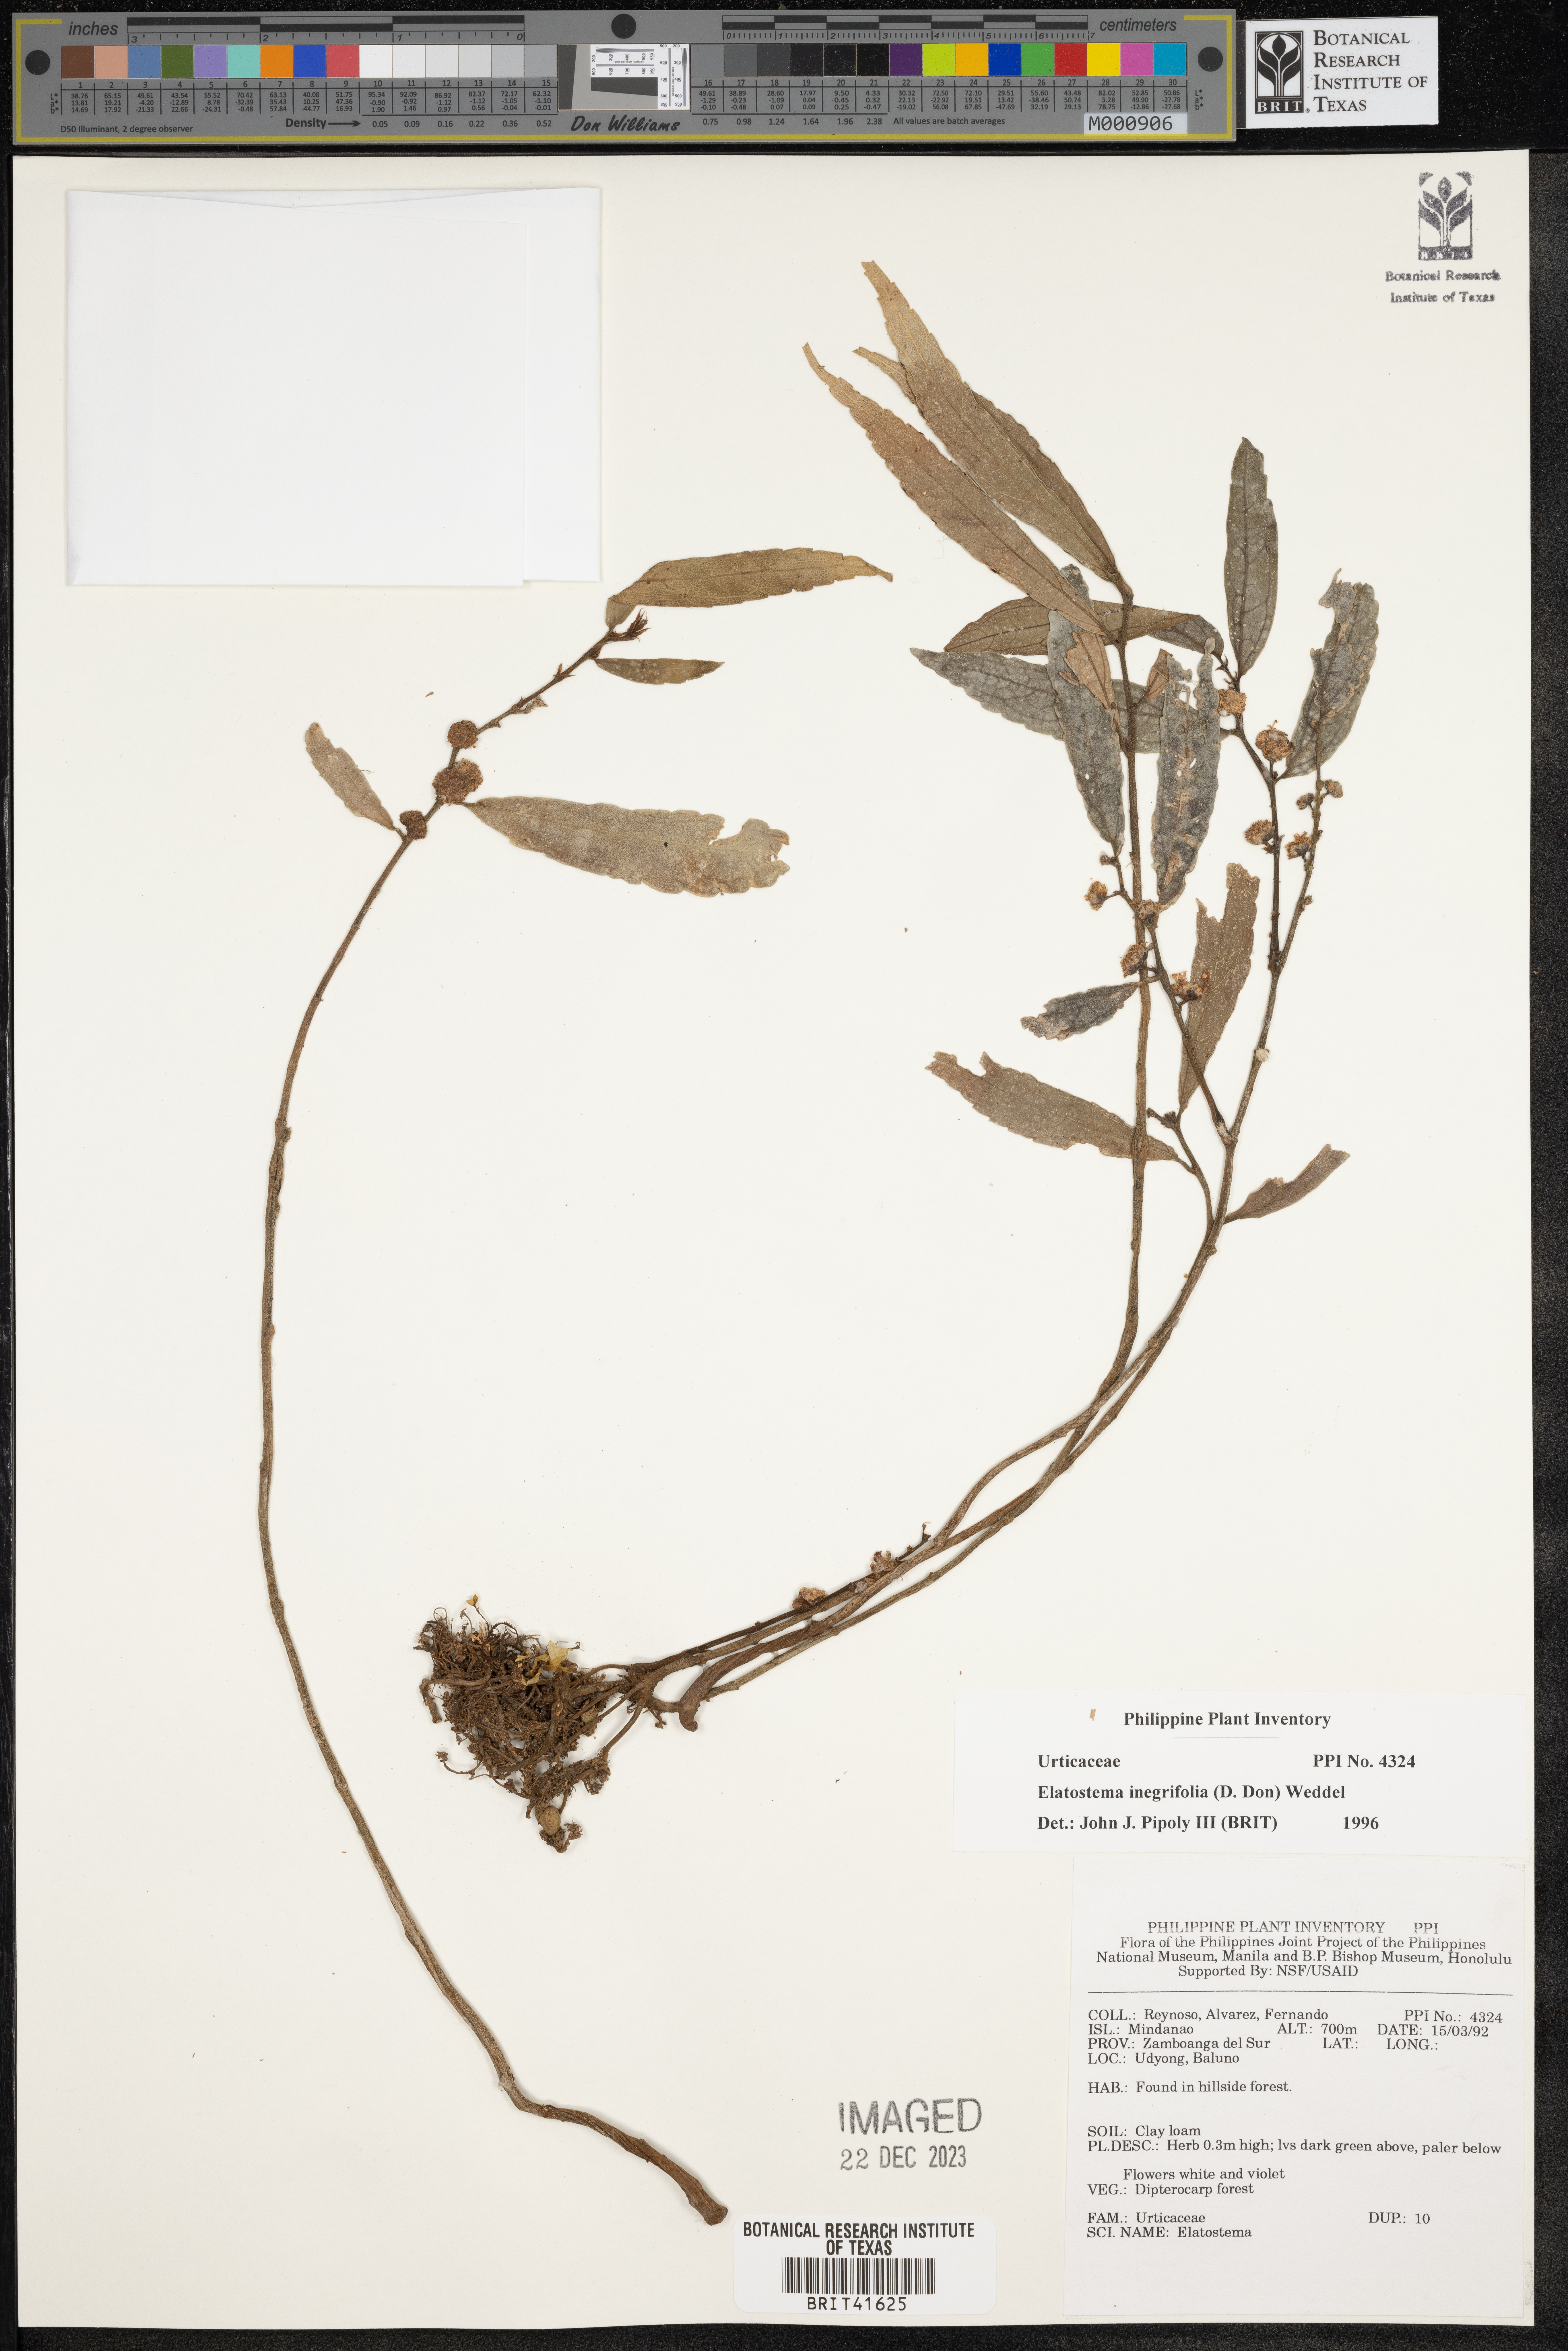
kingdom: Plantae
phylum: Tracheophyta
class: Magnoliopsida
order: Rosales
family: Urticaceae
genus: Elatostema
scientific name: Elatostema integrifolium
